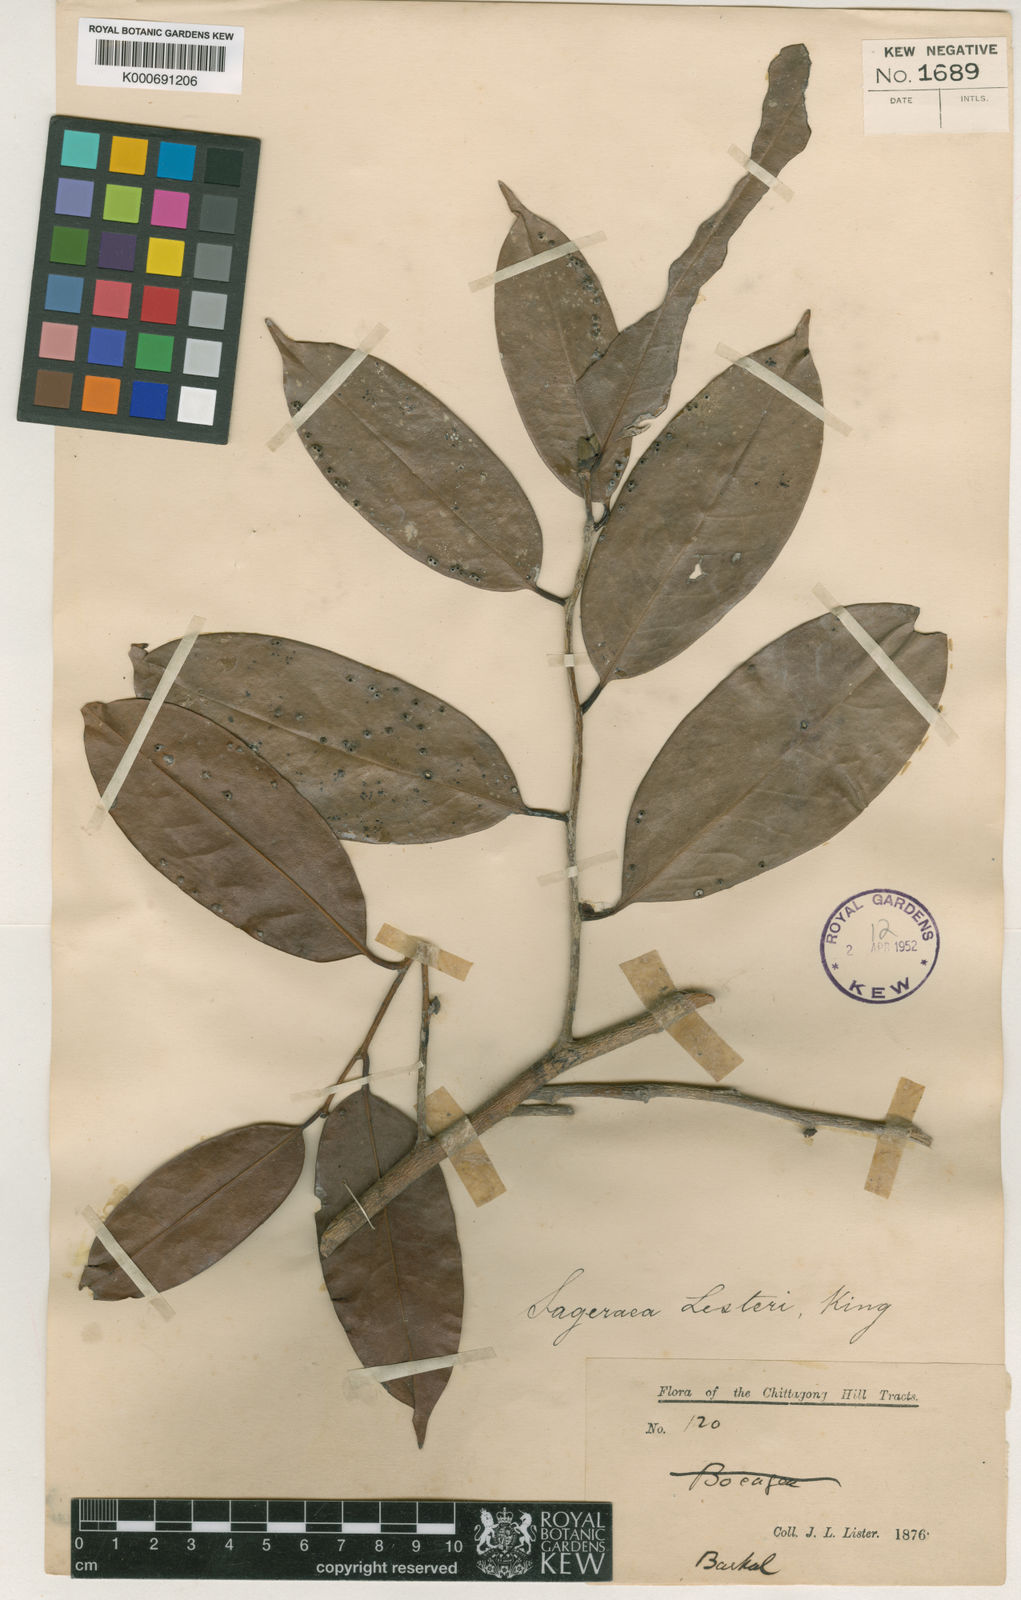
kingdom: Plantae
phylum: Tracheophyta
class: Magnoliopsida
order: Magnoliales
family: Annonaceae
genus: Sageraea
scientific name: Sageraea listeri
